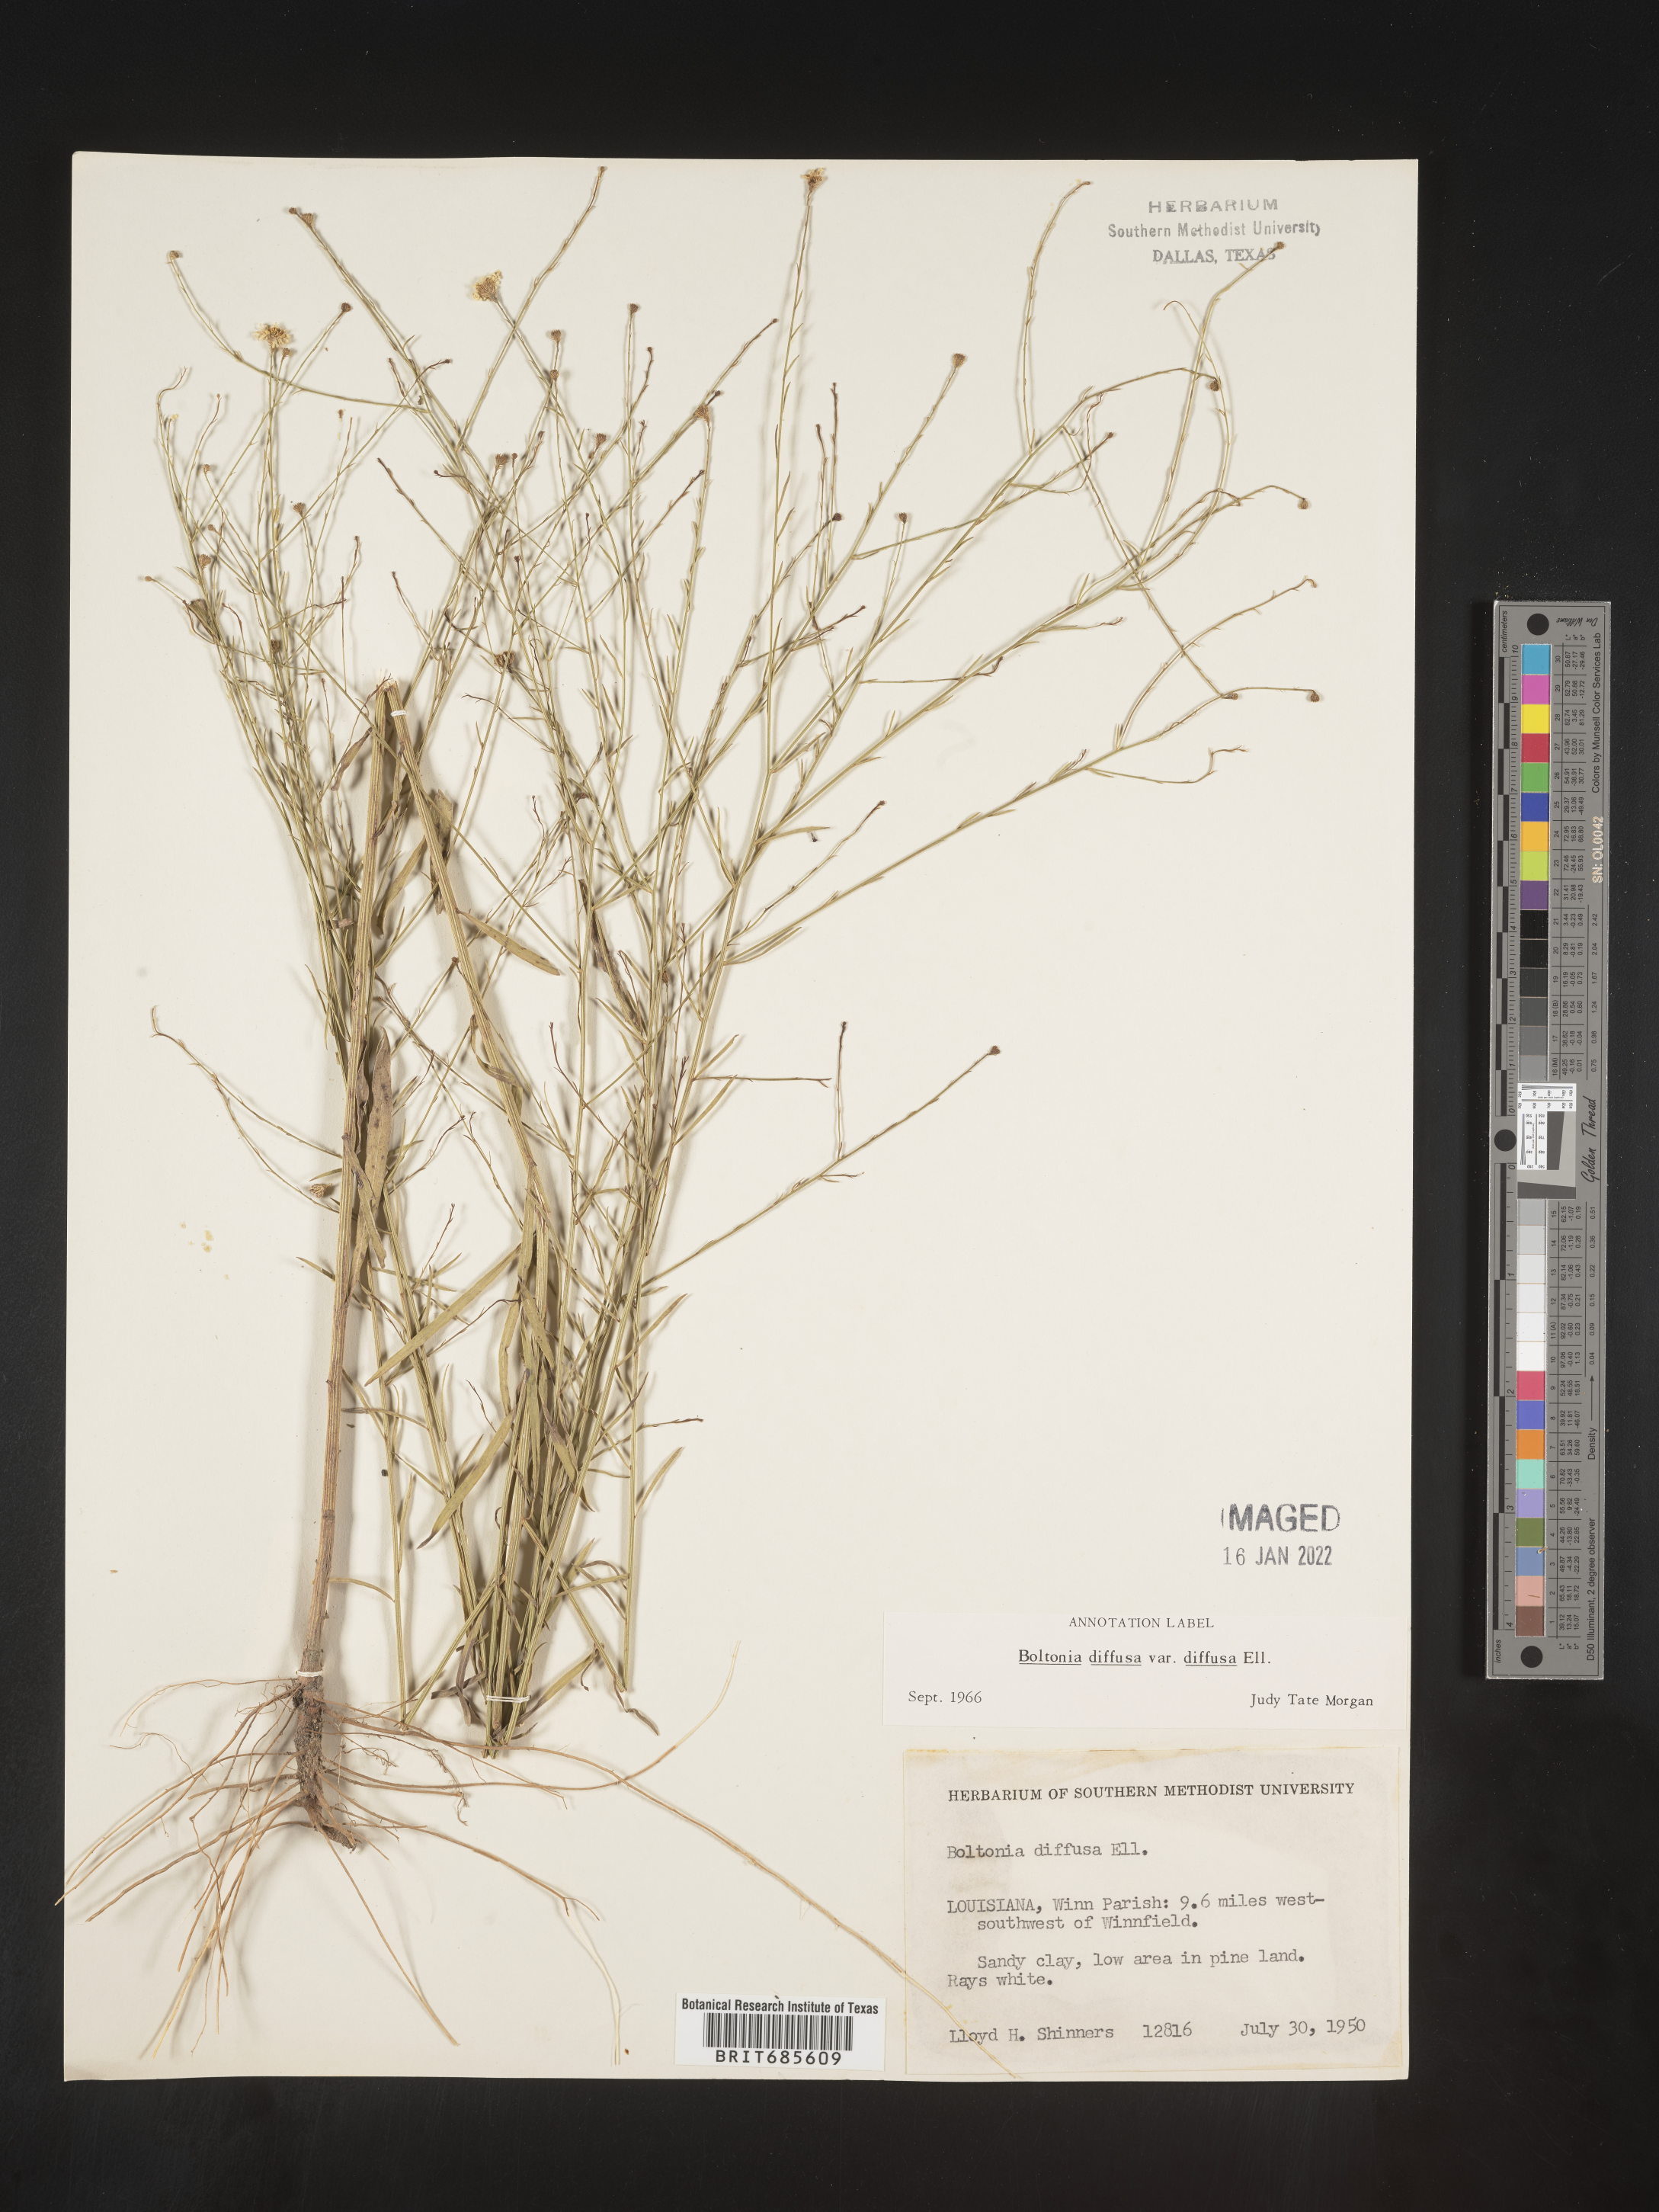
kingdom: Plantae
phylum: Tracheophyta
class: Magnoliopsida
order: Asterales
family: Asteraceae
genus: Boltonia
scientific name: Boltonia diffusa
